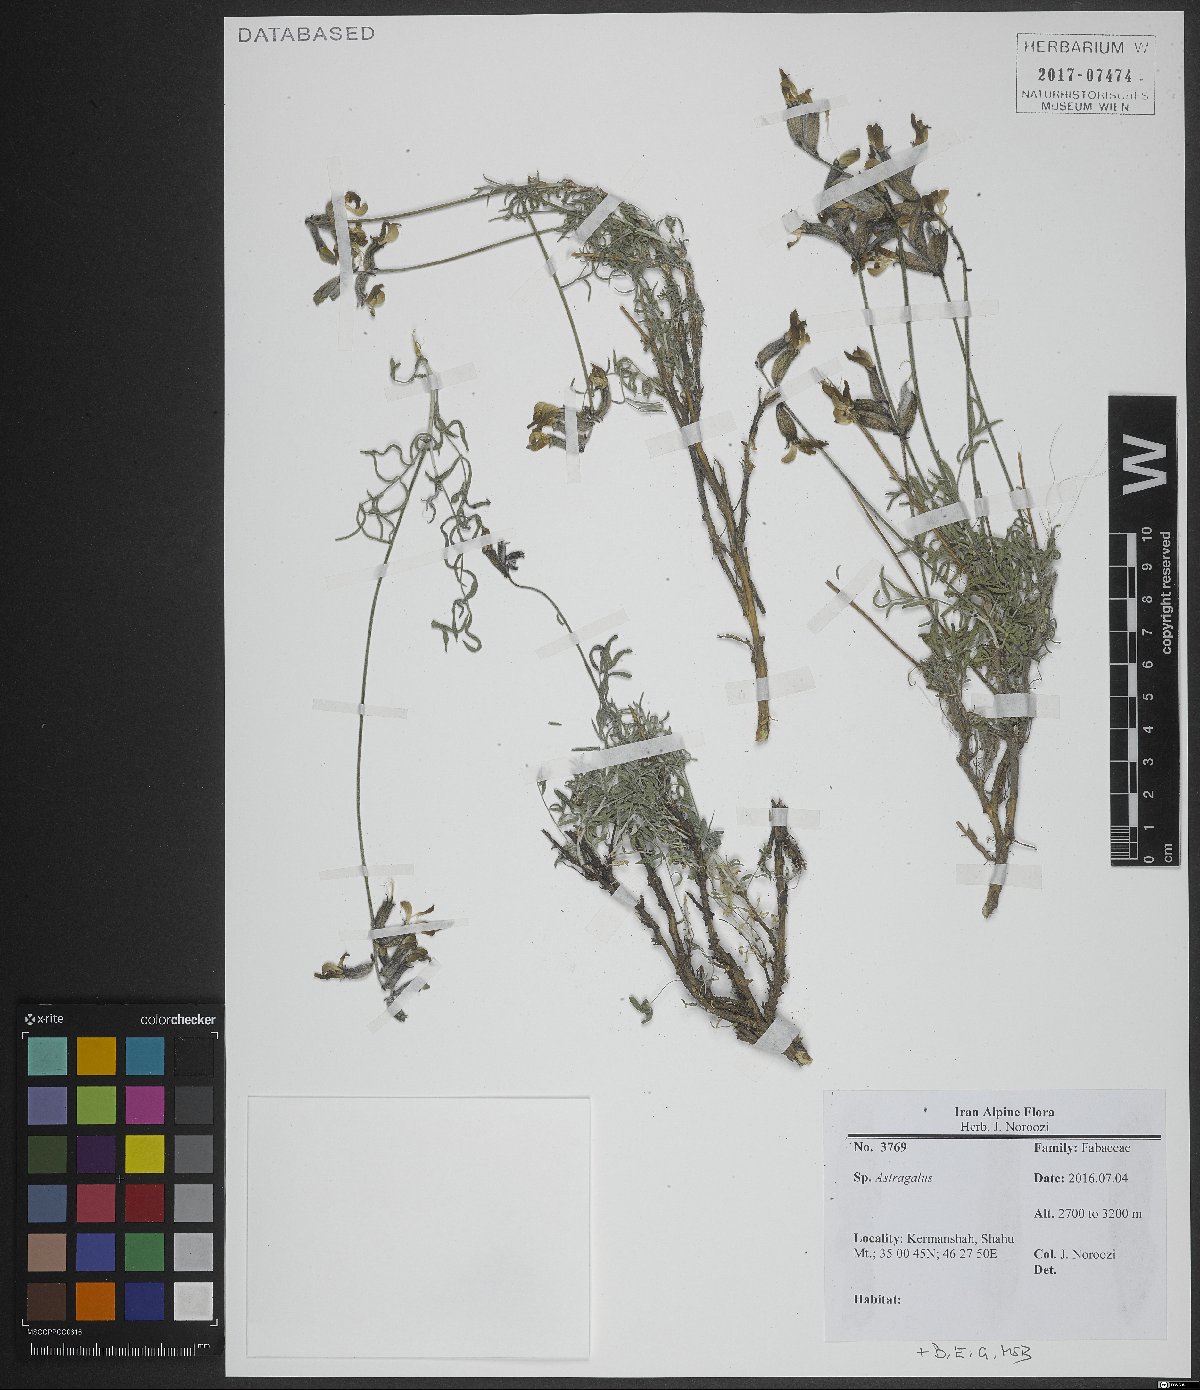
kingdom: Plantae
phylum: Tracheophyta
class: Magnoliopsida
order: Fabales
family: Fabaceae
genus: Astragalus
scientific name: Astragalus
